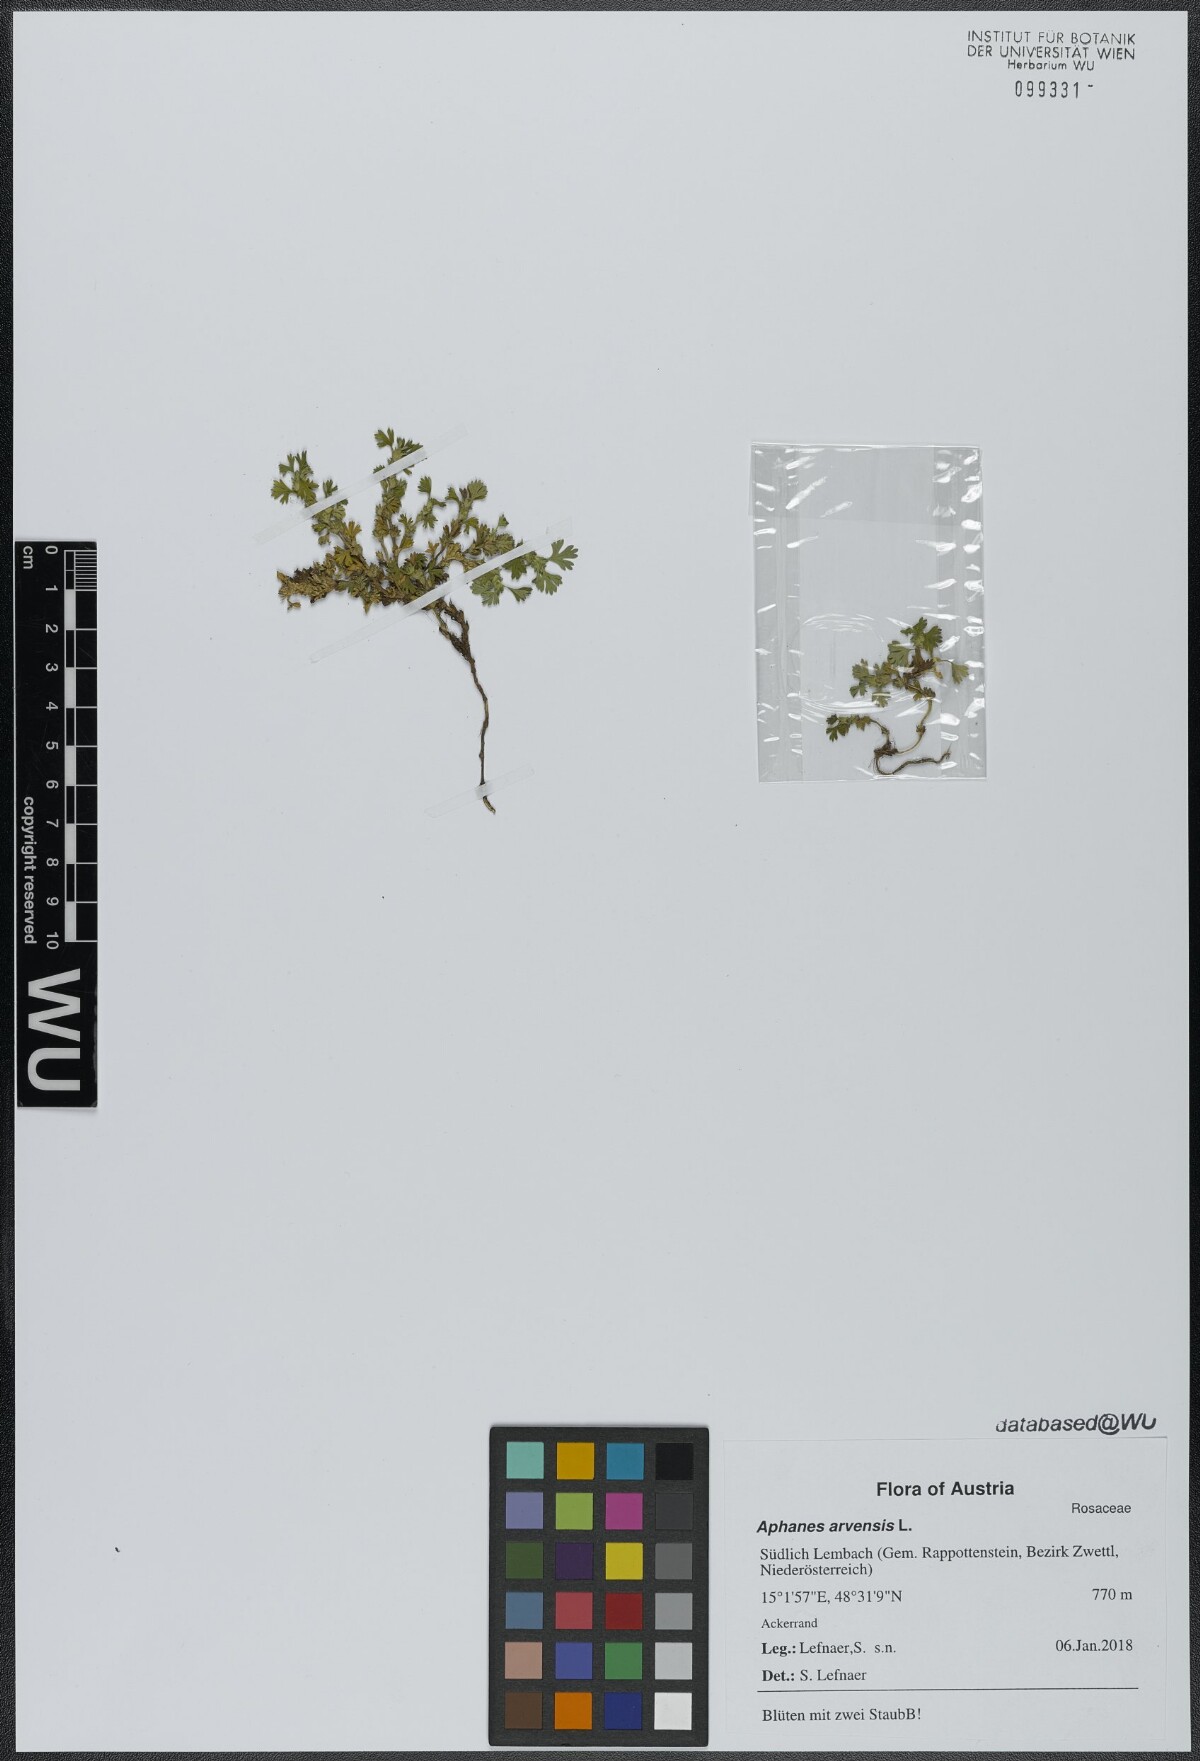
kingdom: Plantae
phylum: Tracheophyta
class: Magnoliopsida
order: Rosales
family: Rosaceae
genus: Aphanes
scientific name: Aphanes arvensis
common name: Parsley-piert
